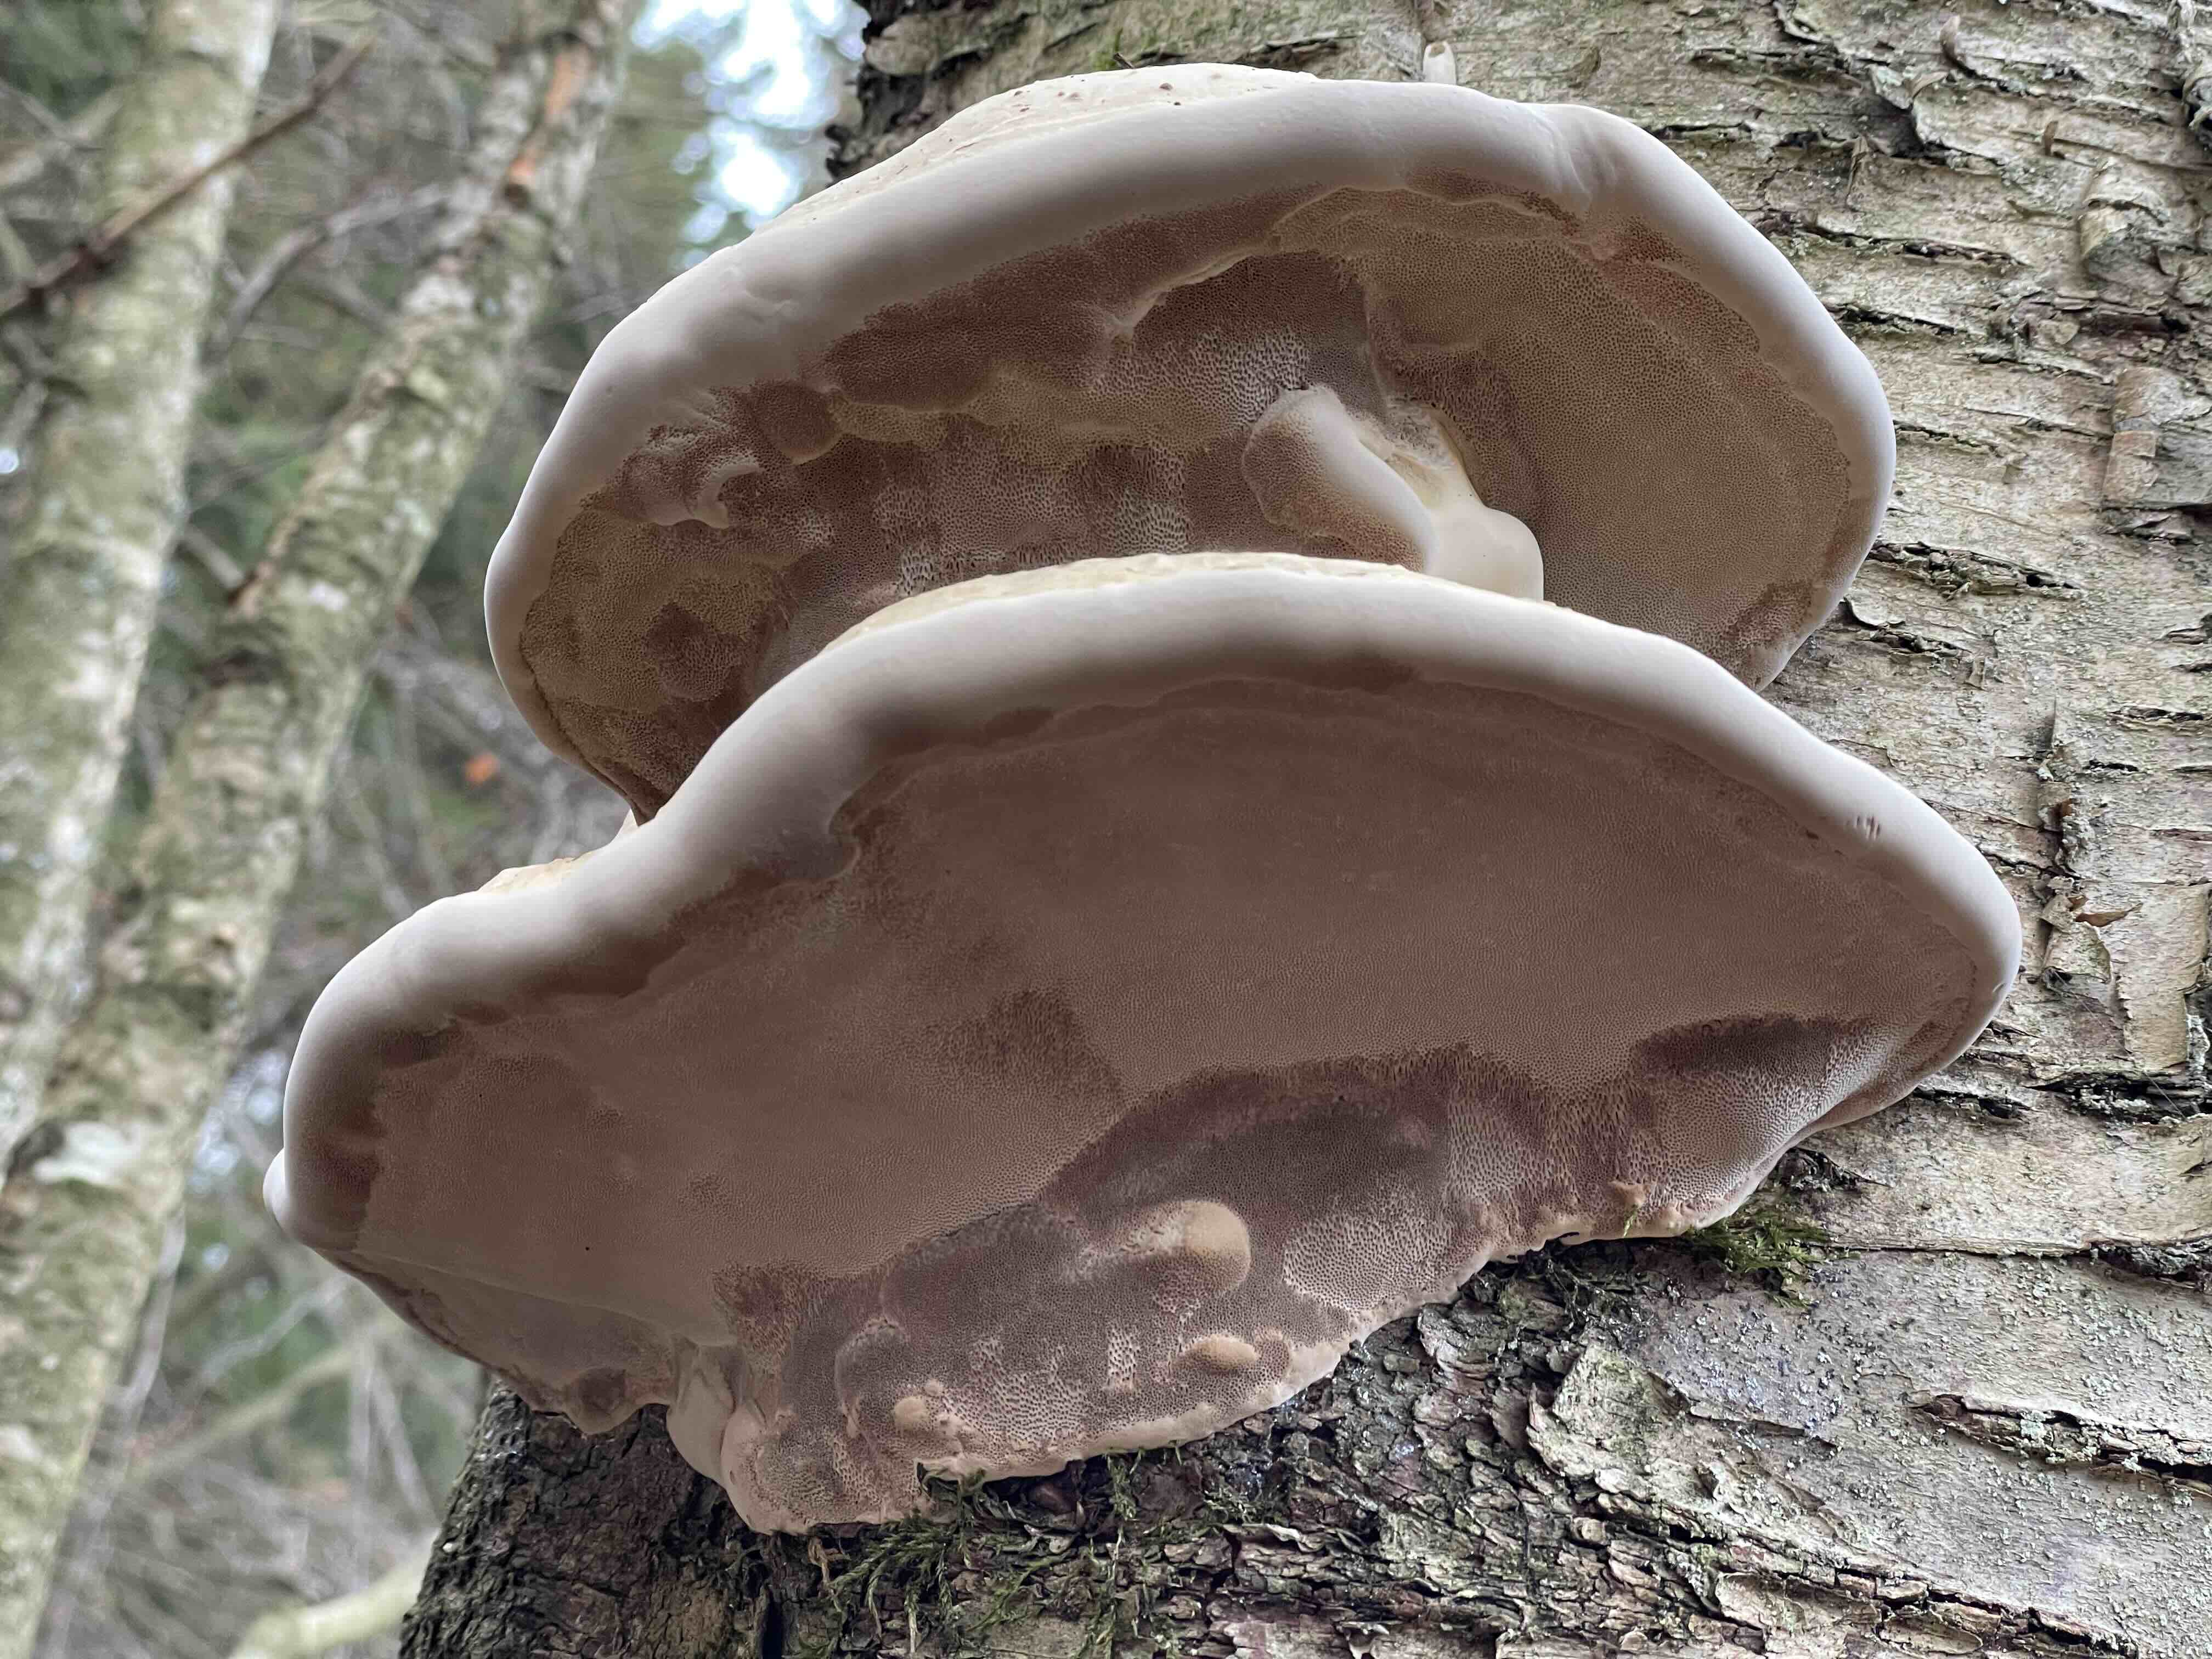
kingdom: Fungi
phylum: Basidiomycota
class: Agaricomycetes
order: Polyporales
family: Polyporaceae
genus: Fomes
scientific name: Fomes fomentarius
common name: tøndersvamp
